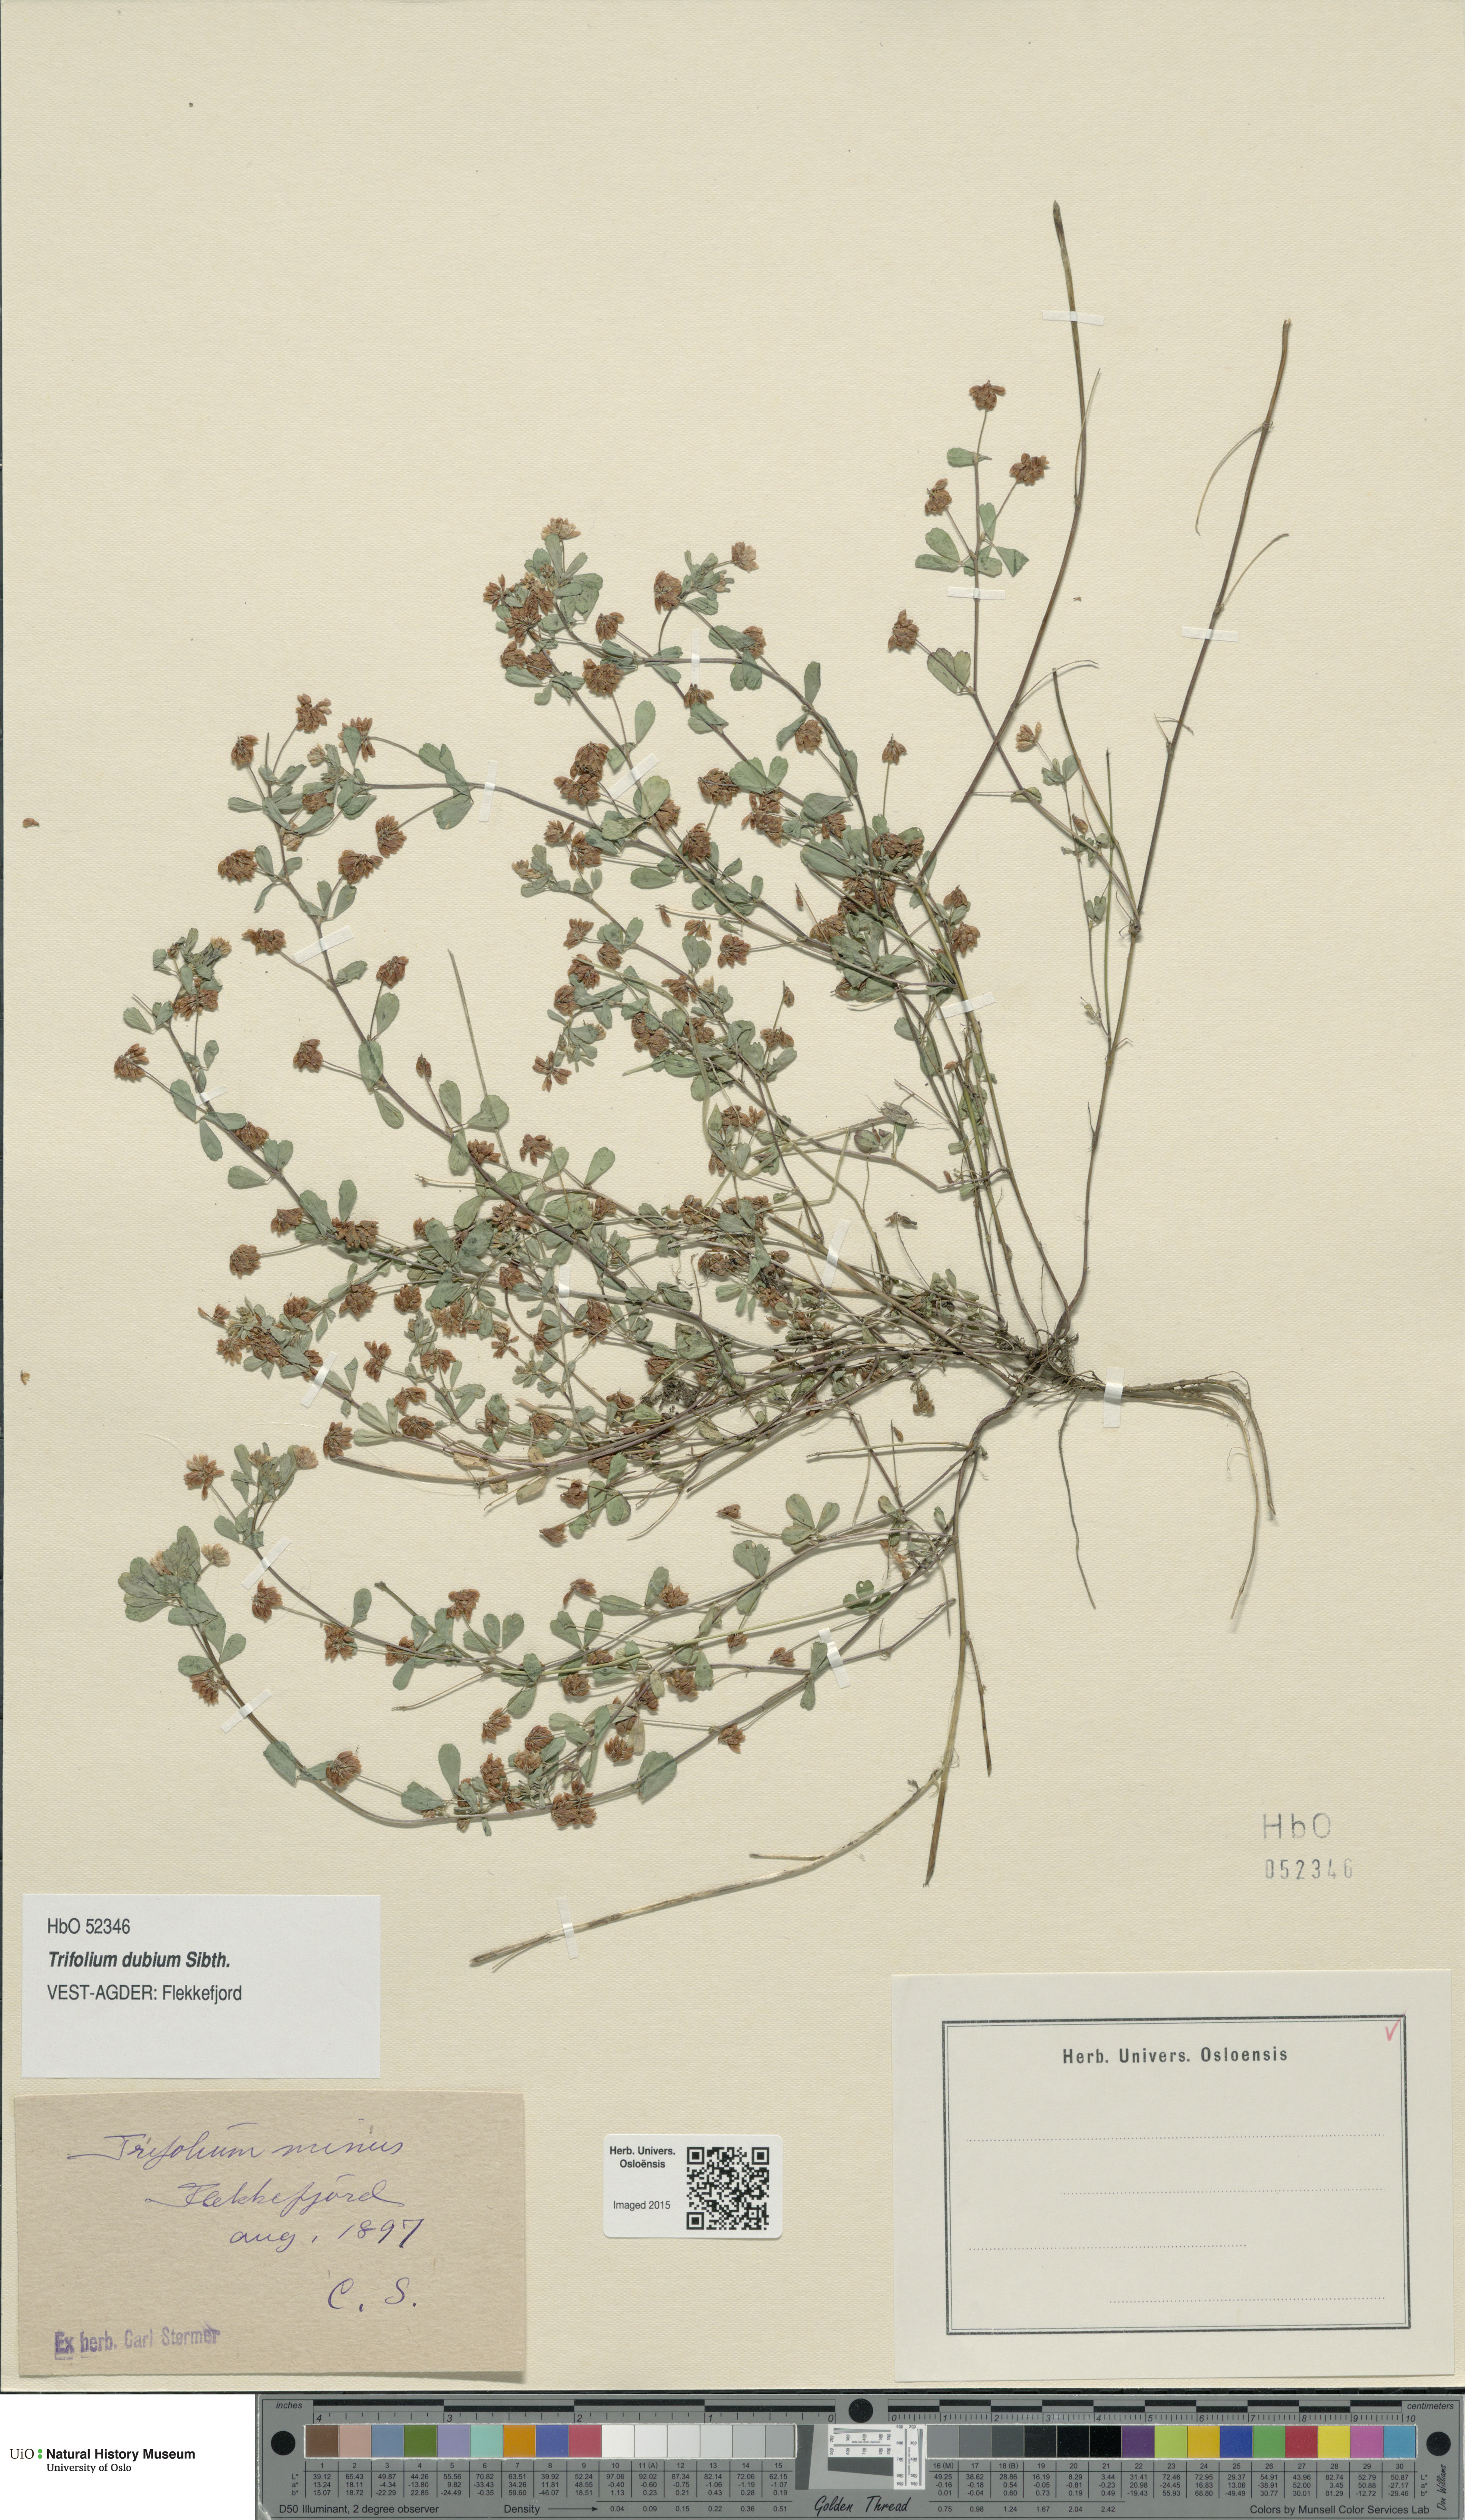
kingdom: Plantae
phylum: Tracheophyta
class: Magnoliopsida
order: Fabales
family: Fabaceae
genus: Trifolium
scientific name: Trifolium dubium
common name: Suckling clover
